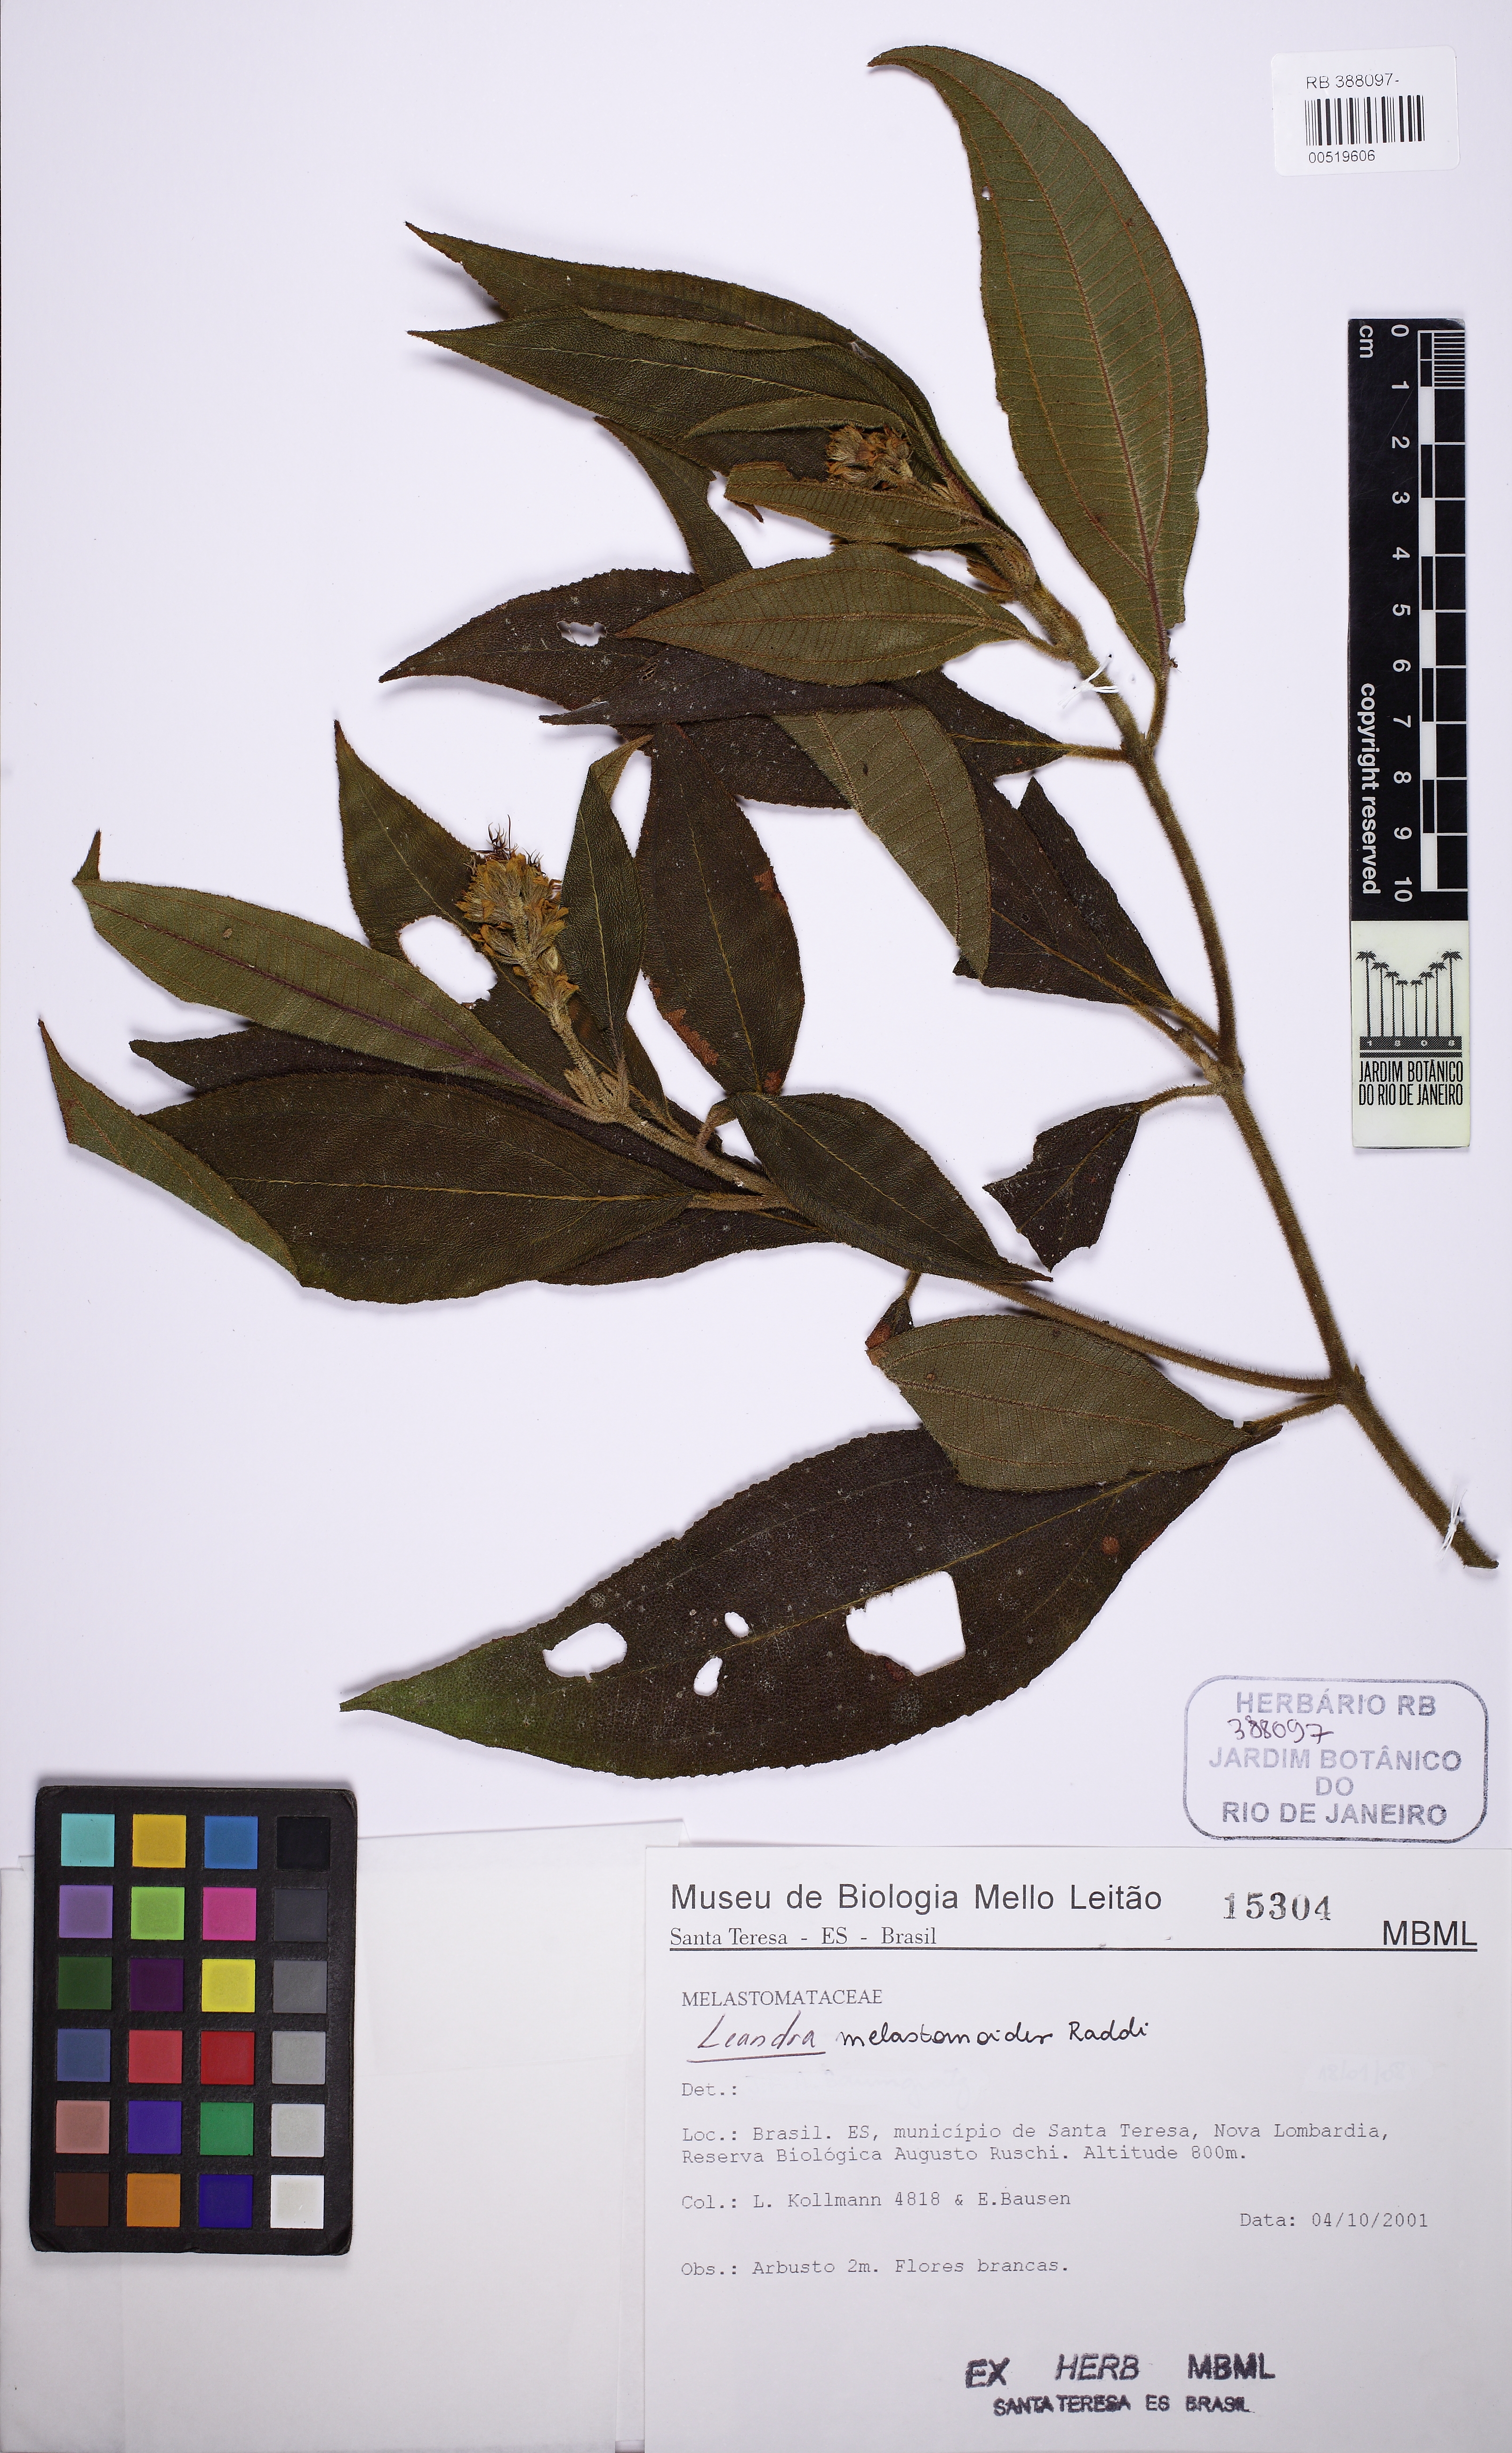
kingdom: Plantae
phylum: Tracheophyta
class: Magnoliopsida
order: Myrtales
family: Melastomataceae
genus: Miconia
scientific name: Miconia melastomoides
